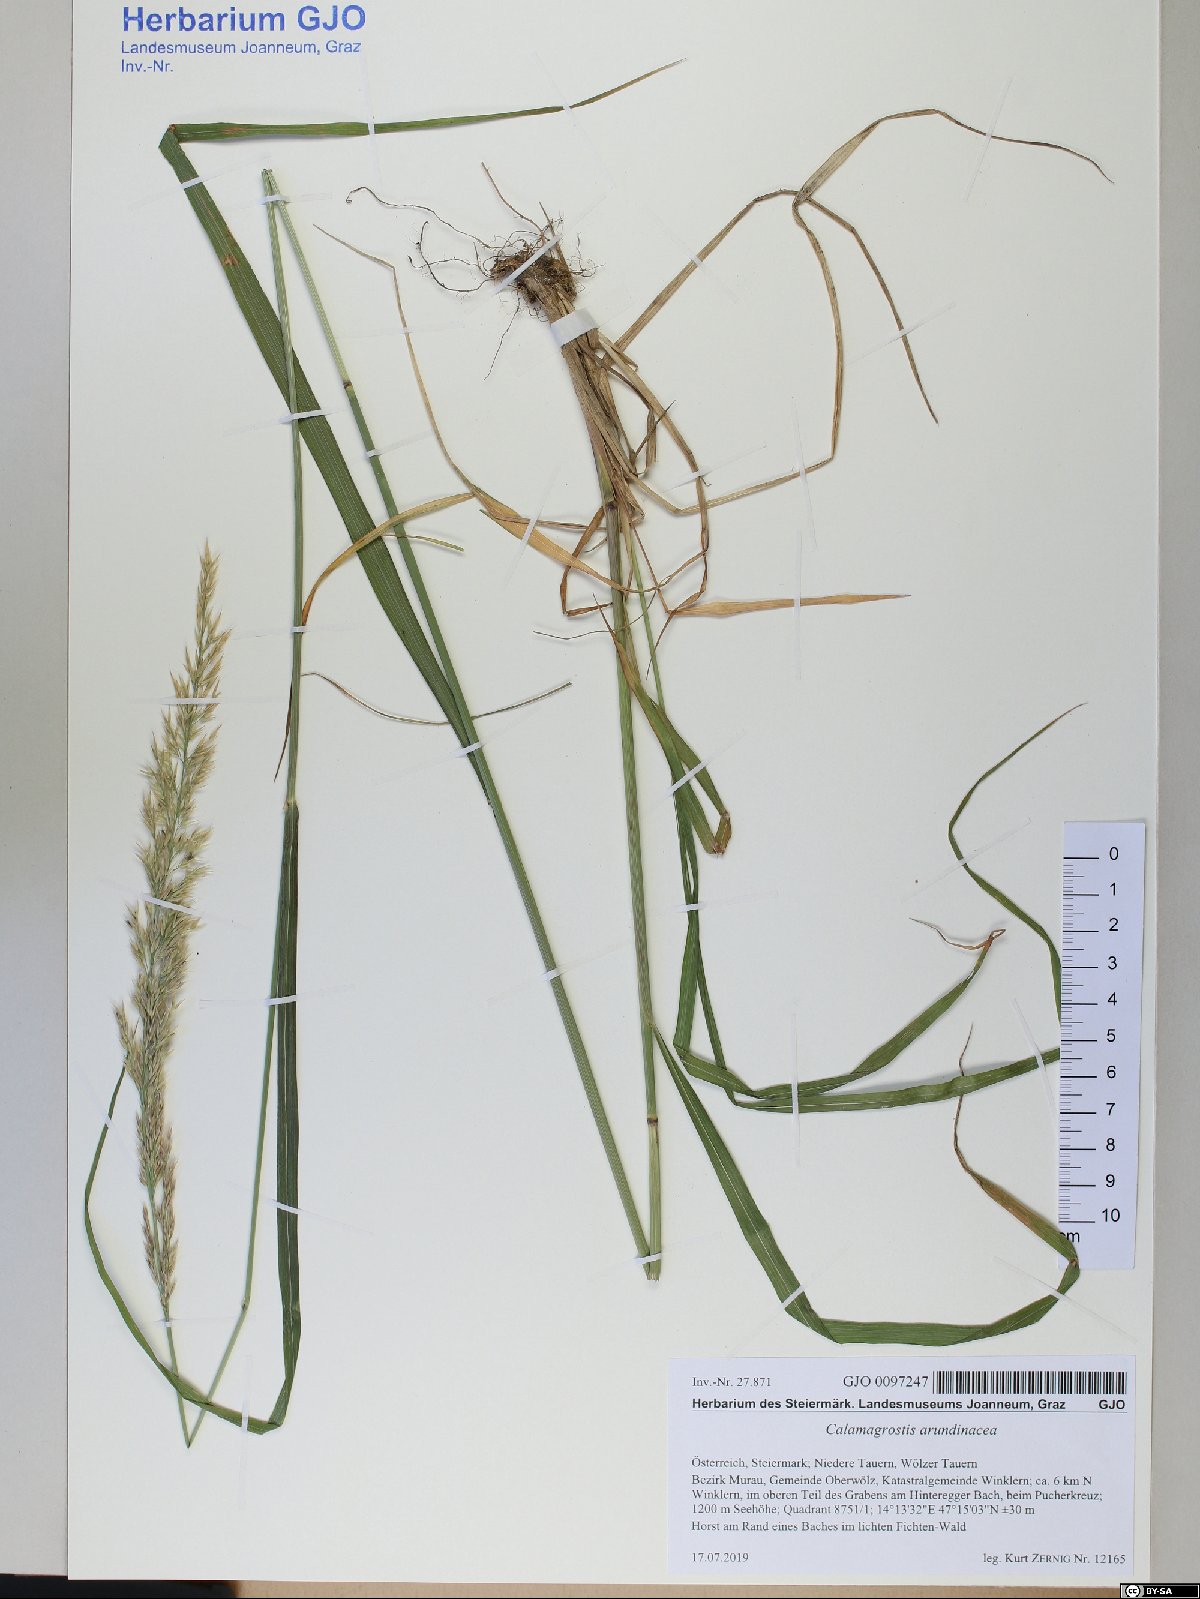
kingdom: Plantae
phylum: Tracheophyta
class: Liliopsida
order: Poales
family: Poaceae
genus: Calamagrostis
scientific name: Calamagrostis arundinacea
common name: Metskastik
